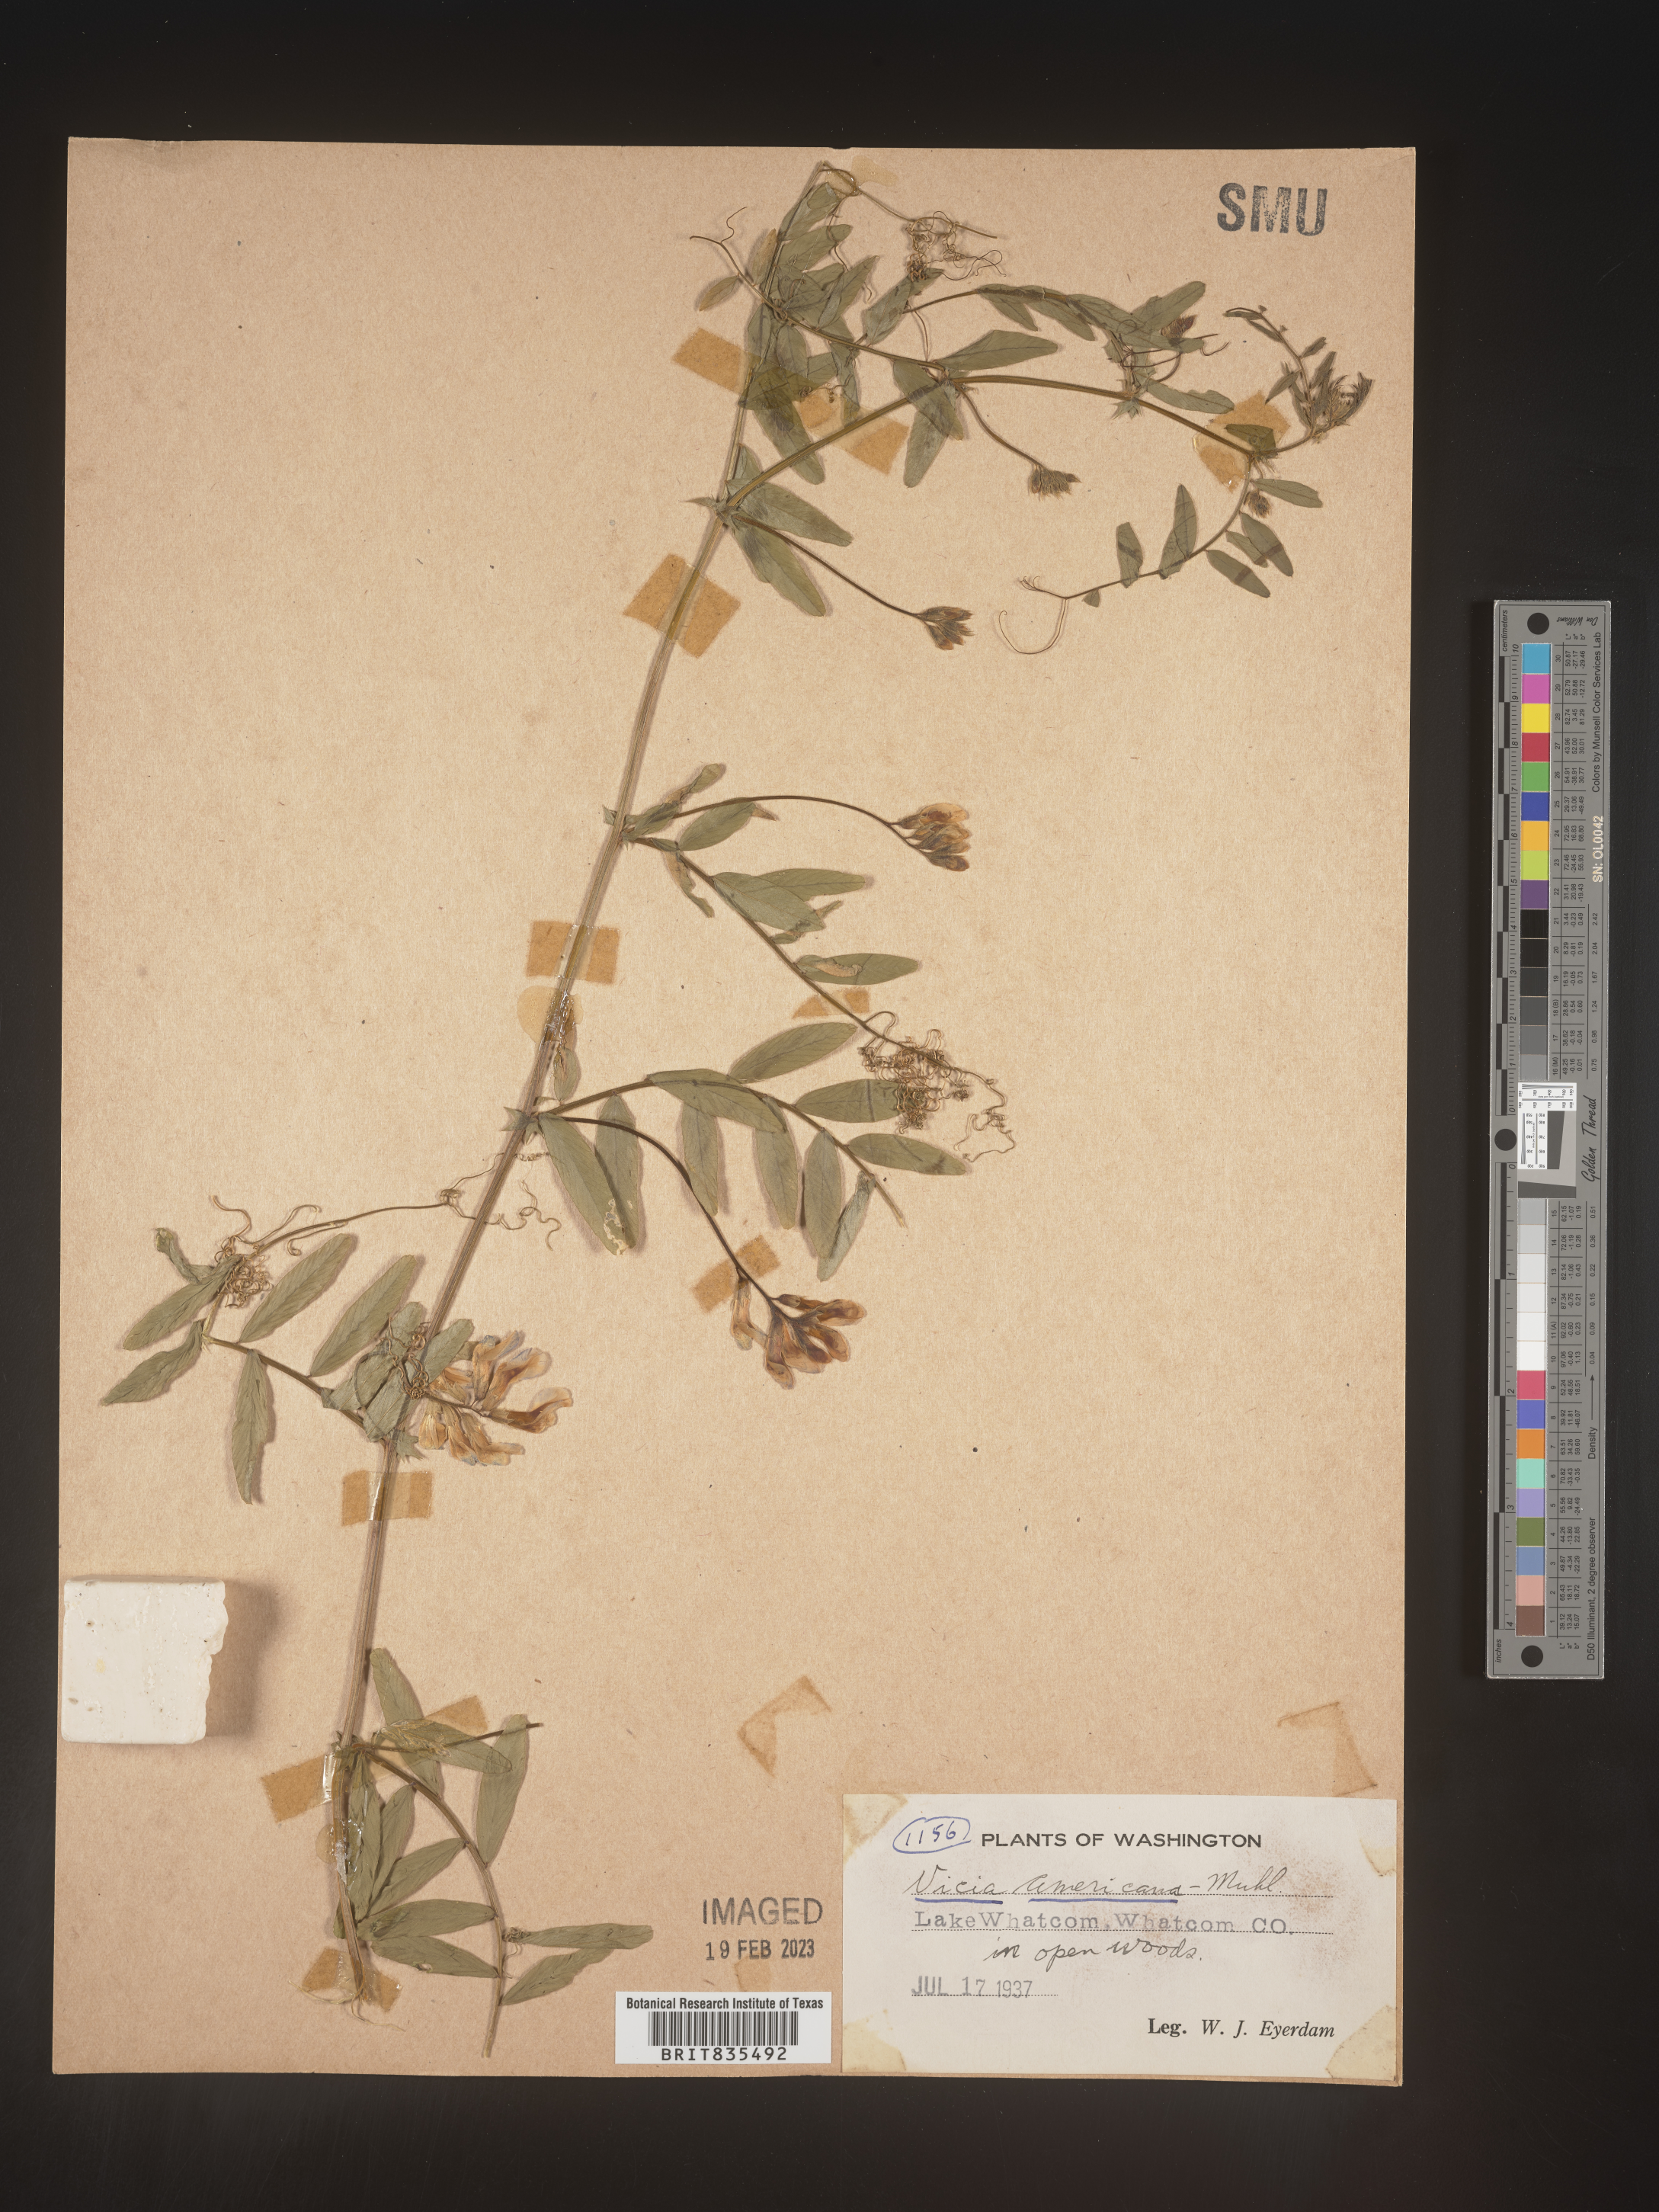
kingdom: Plantae
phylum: Tracheophyta
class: Magnoliopsida
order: Fabales
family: Fabaceae
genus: Vicia
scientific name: Vicia americana
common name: American vetch
